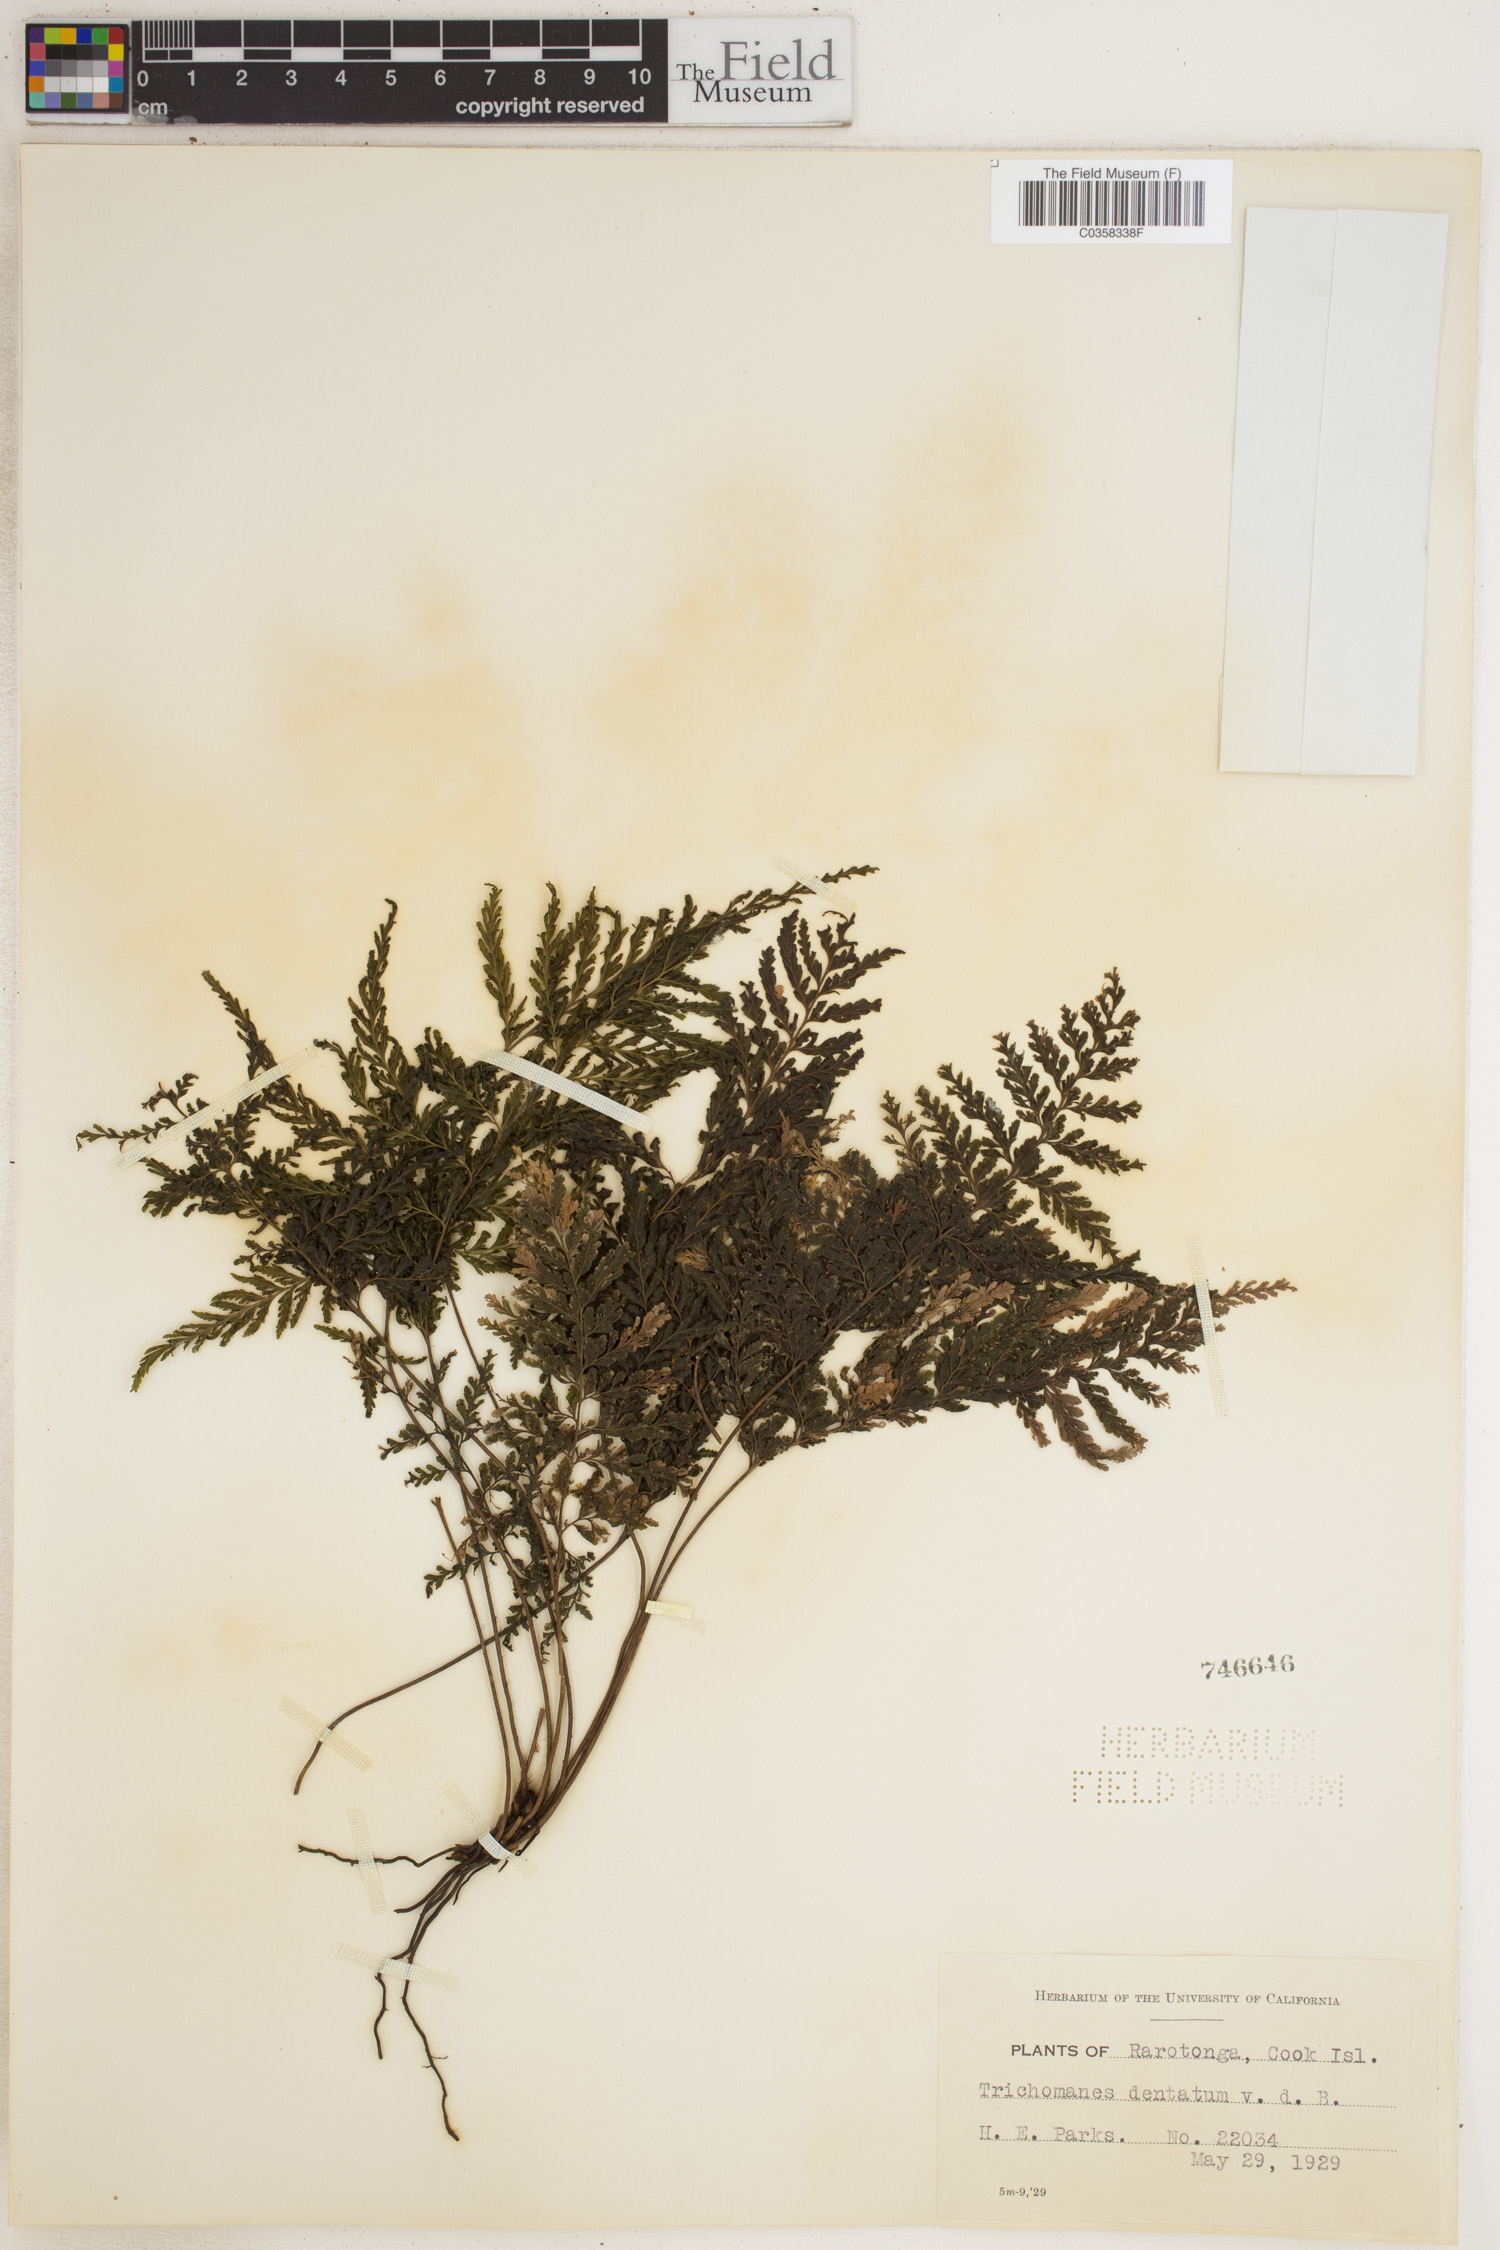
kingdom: Plantae
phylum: Tracheophyta
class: Polypodiopsida
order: Hymenophyllales
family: Hymenophyllaceae
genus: Abrodictyum
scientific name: Abrodictyum dentatum
